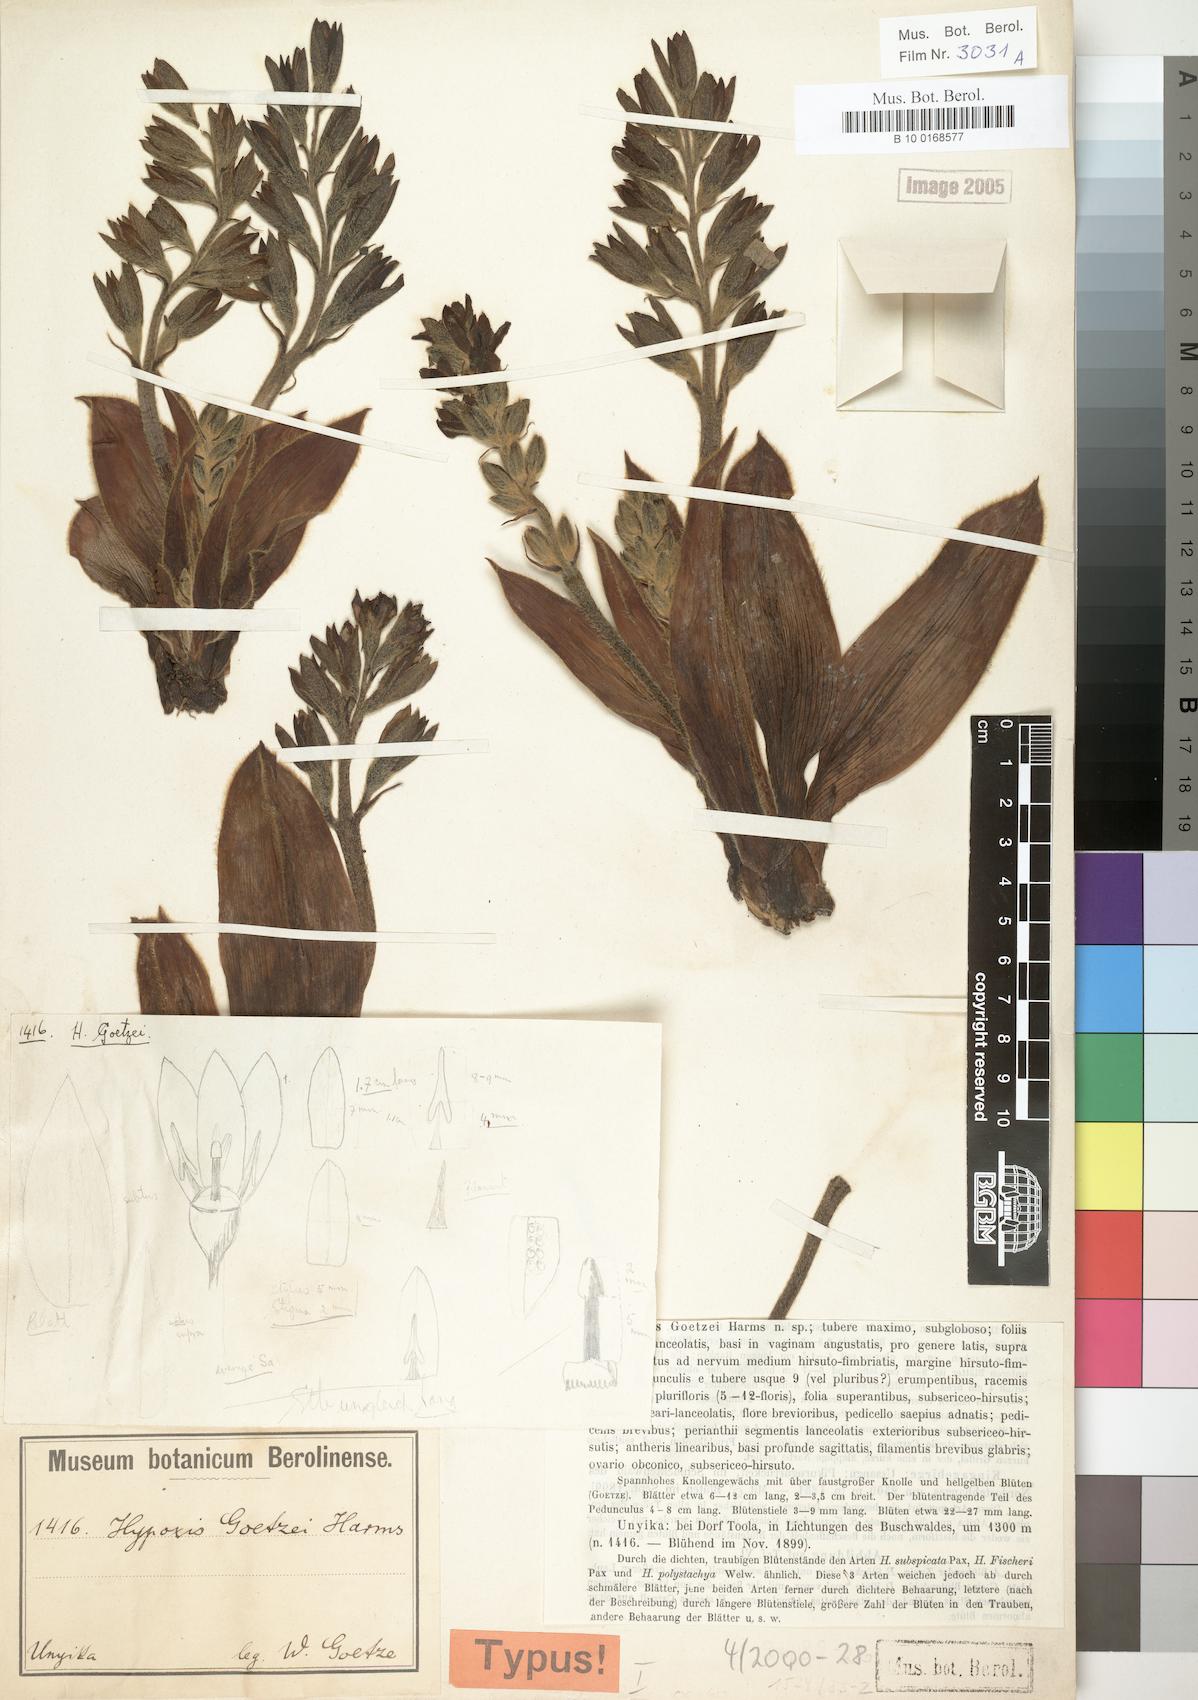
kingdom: Plantae
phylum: Tracheophyta
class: Liliopsida
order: Asparagales
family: Hypoxidaceae
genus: Hypoxis
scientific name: Hypoxis goetzei
